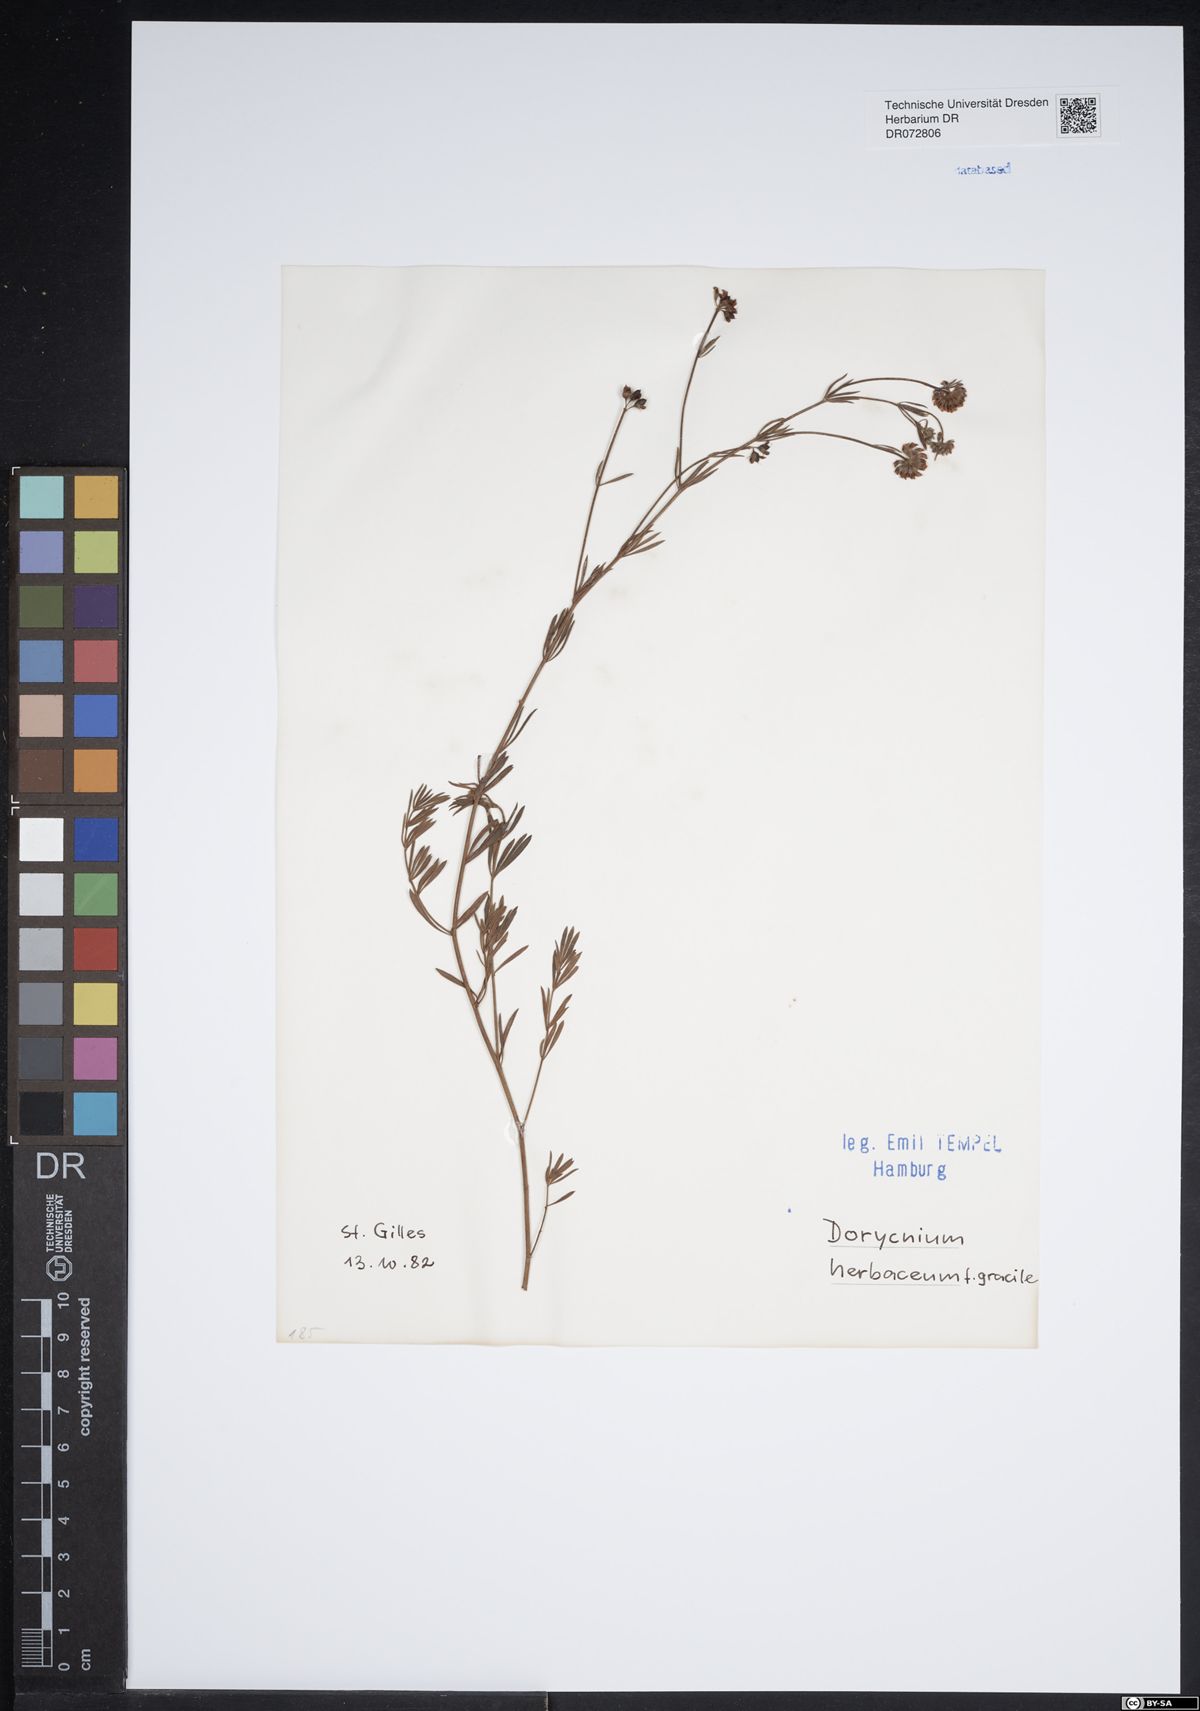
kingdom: Plantae
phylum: Tracheophyta
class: Magnoliopsida
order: Fabales
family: Fabaceae
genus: Lotus
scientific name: Lotus herbaceus
